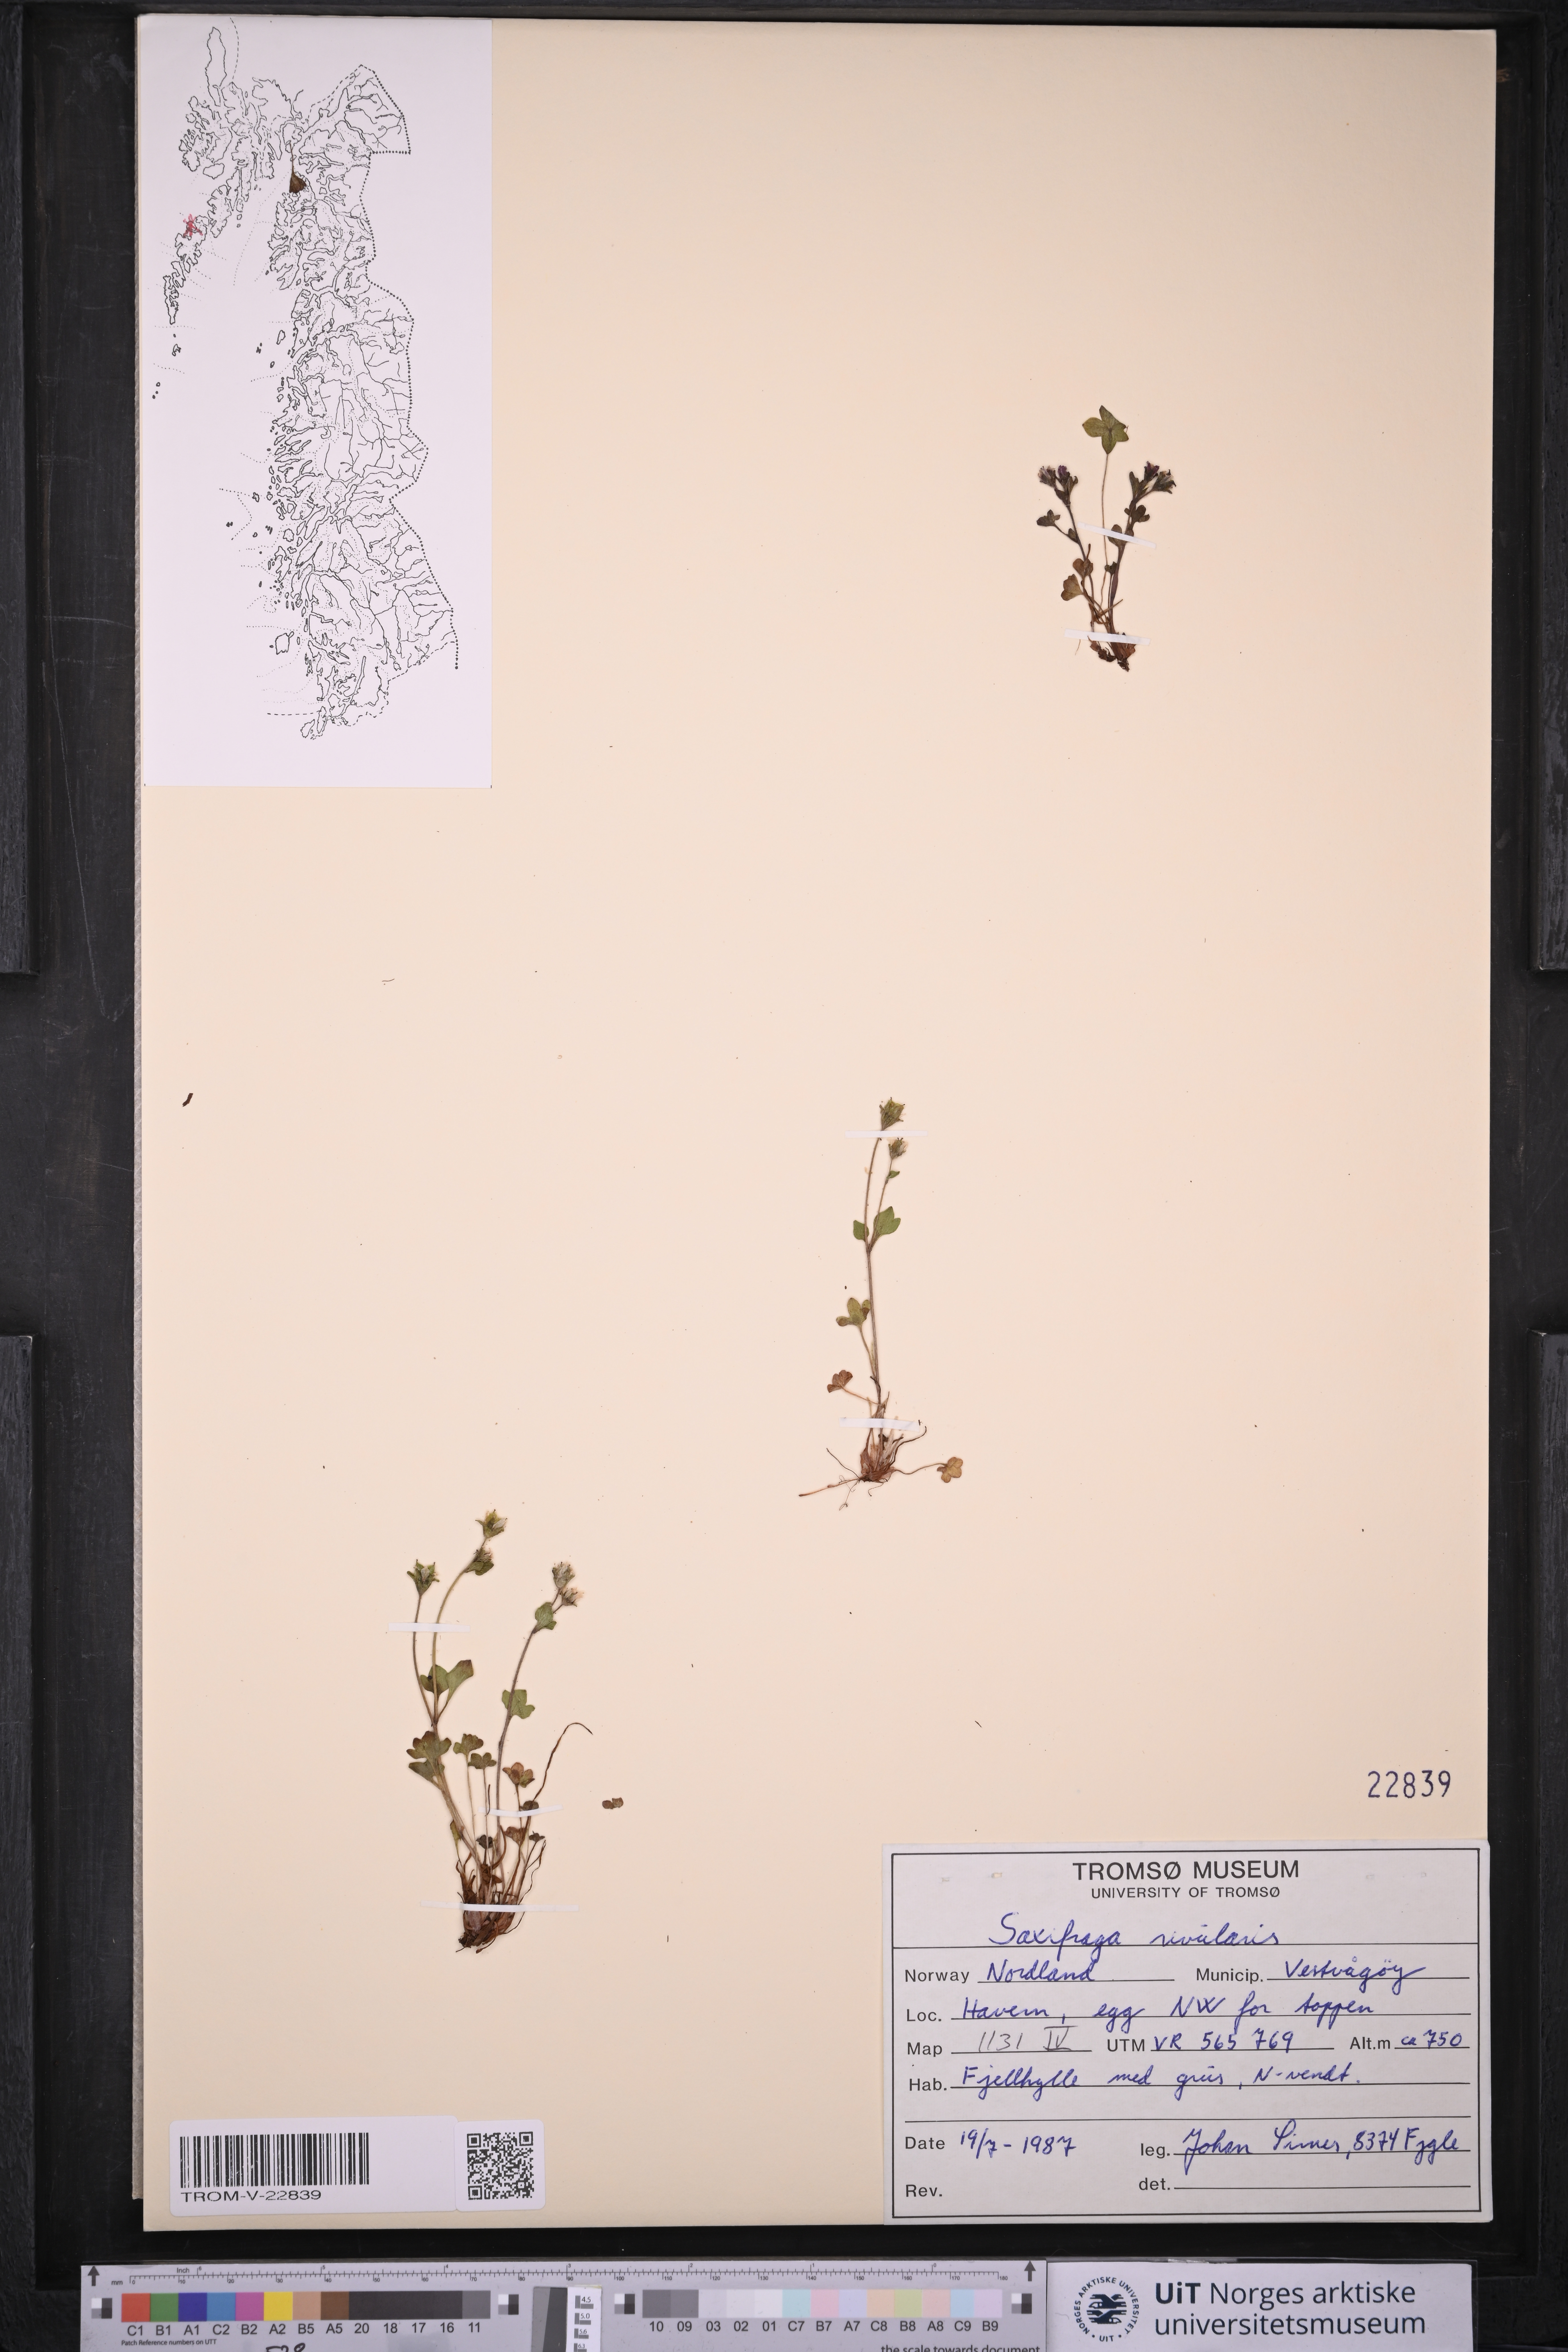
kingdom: Plantae
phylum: Tracheophyta
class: Magnoliopsida
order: Saxifragales
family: Saxifragaceae
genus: Saxifraga
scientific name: Saxifraga rivularis
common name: Highland saxifrage
